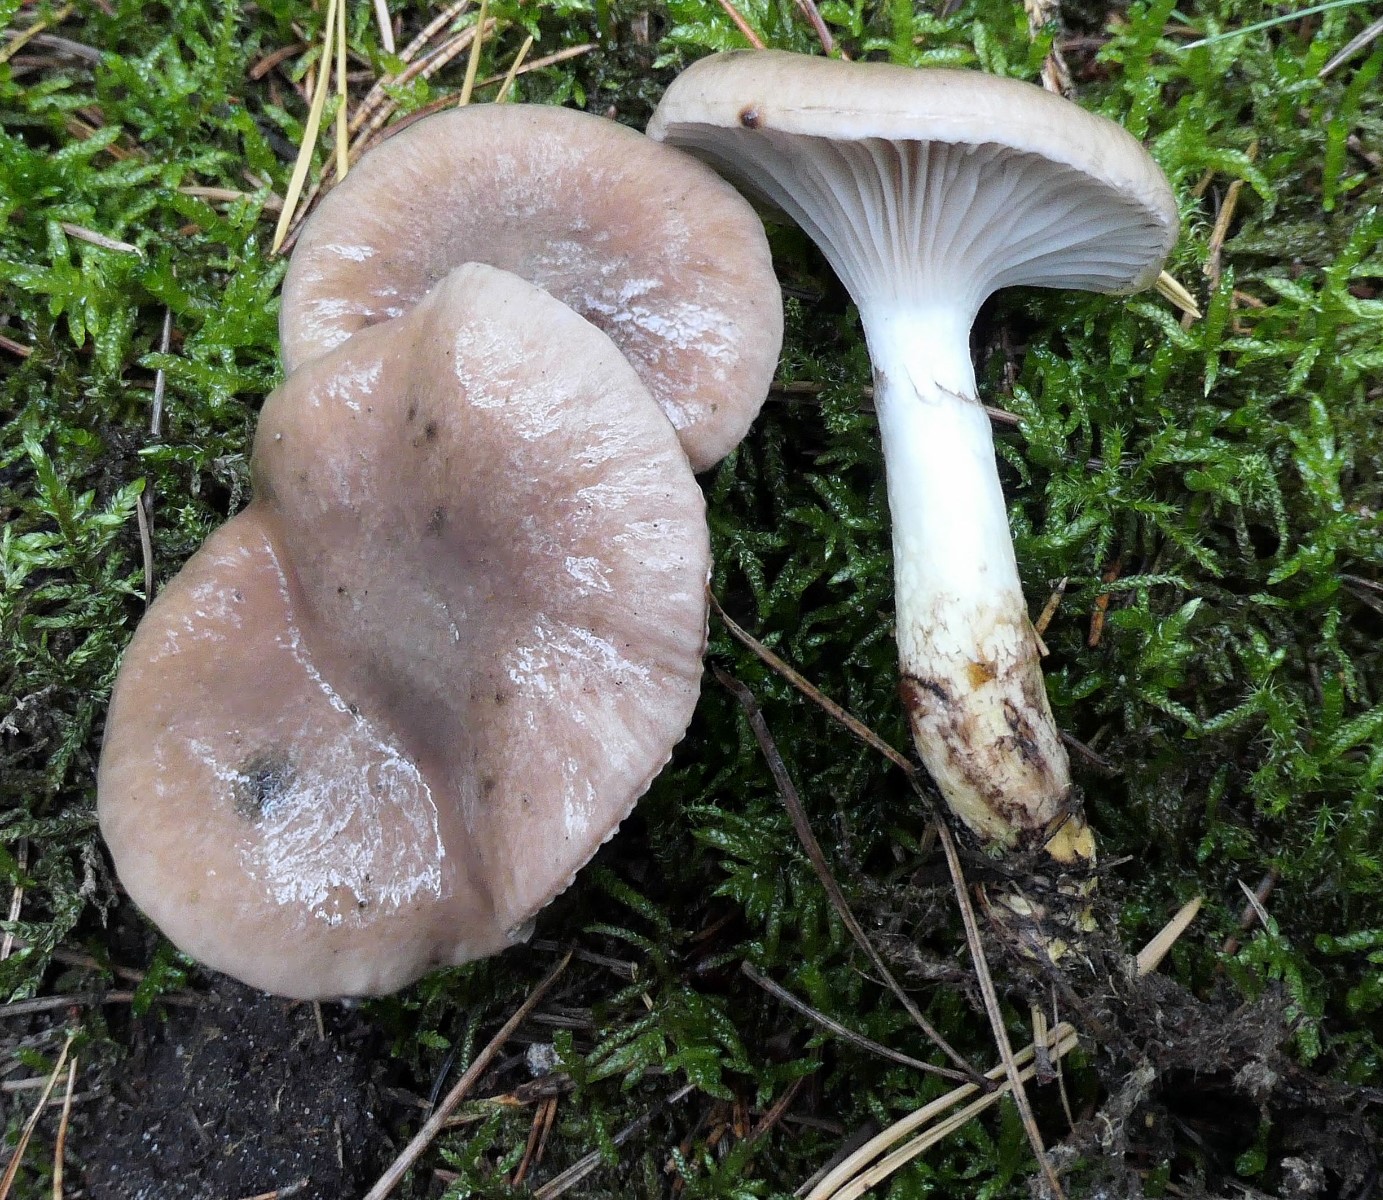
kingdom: Fungi
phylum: Basidiomycota
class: Agaricomycetes
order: Boletales
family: Gomphidiaceae
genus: Gomphidius
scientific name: Gomphidius glutinosus
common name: grå slimslør
